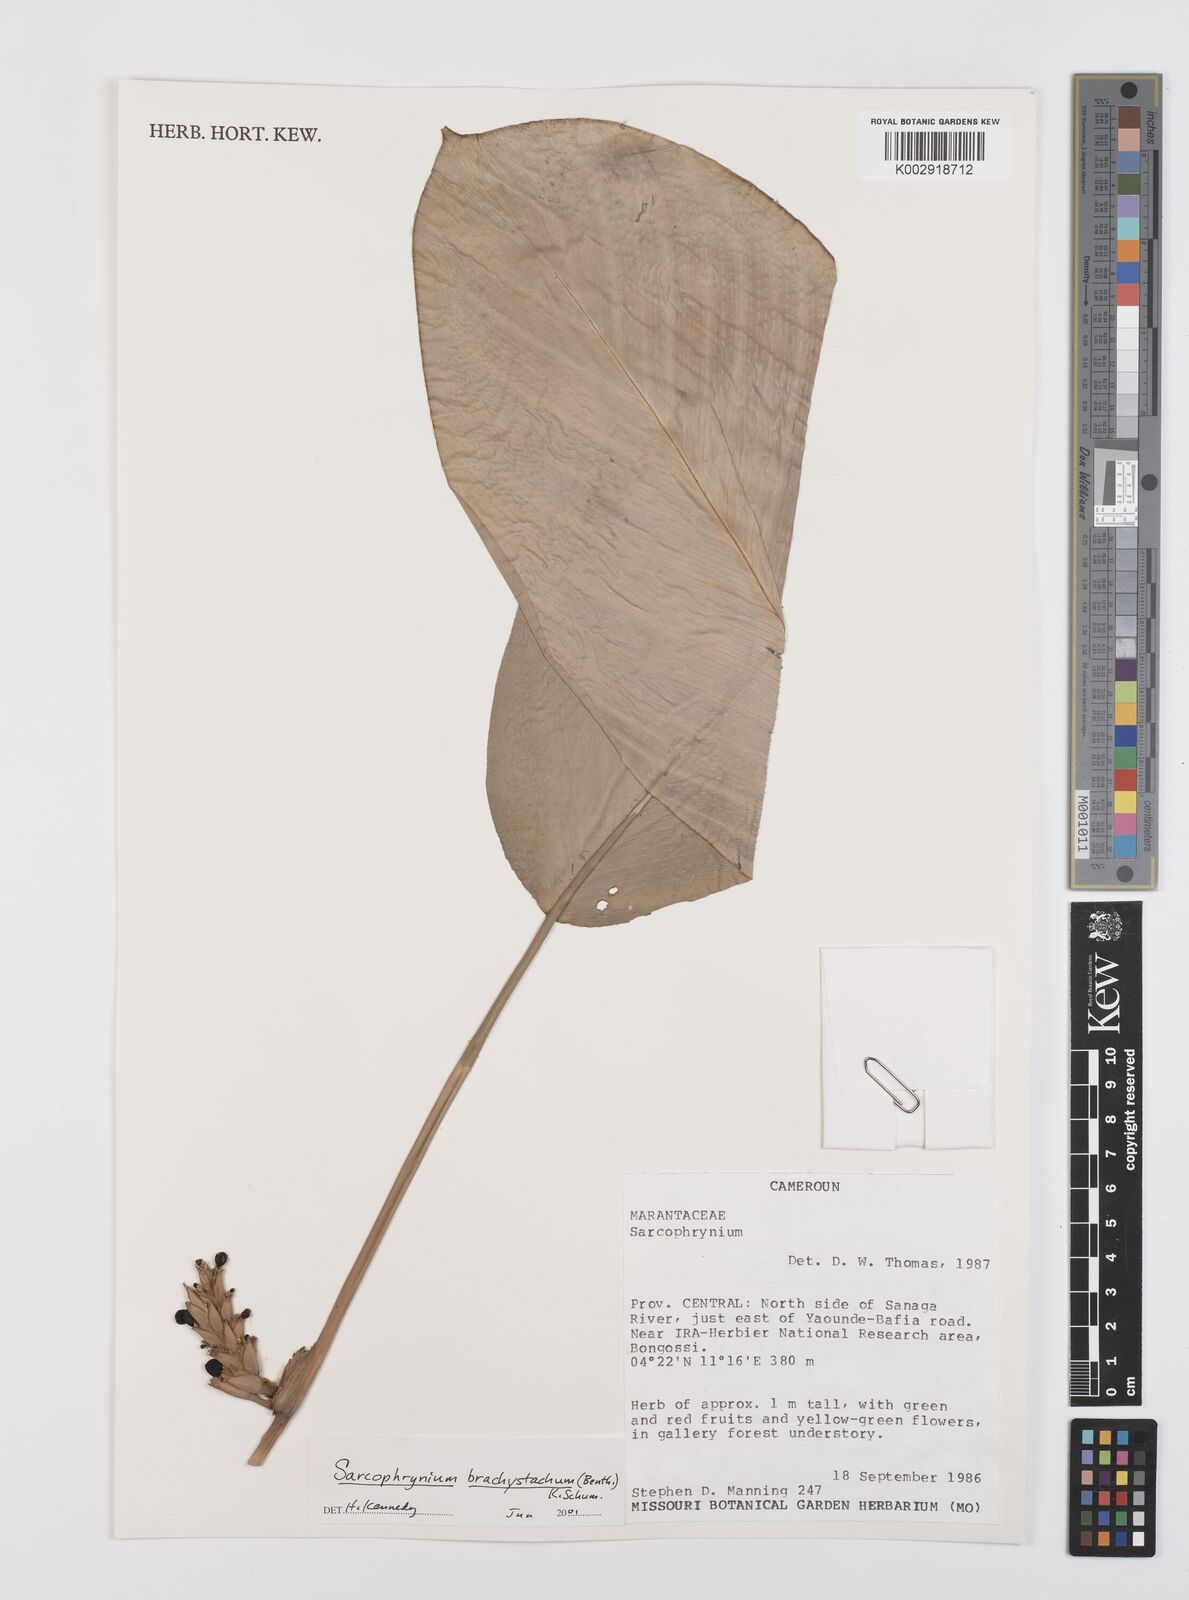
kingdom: Plantae
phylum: Tracheophyta
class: Liliopsida
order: Zingiberales
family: Marantaceae
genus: Sarcophrynium
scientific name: Sarcophrynium brachystachyum
